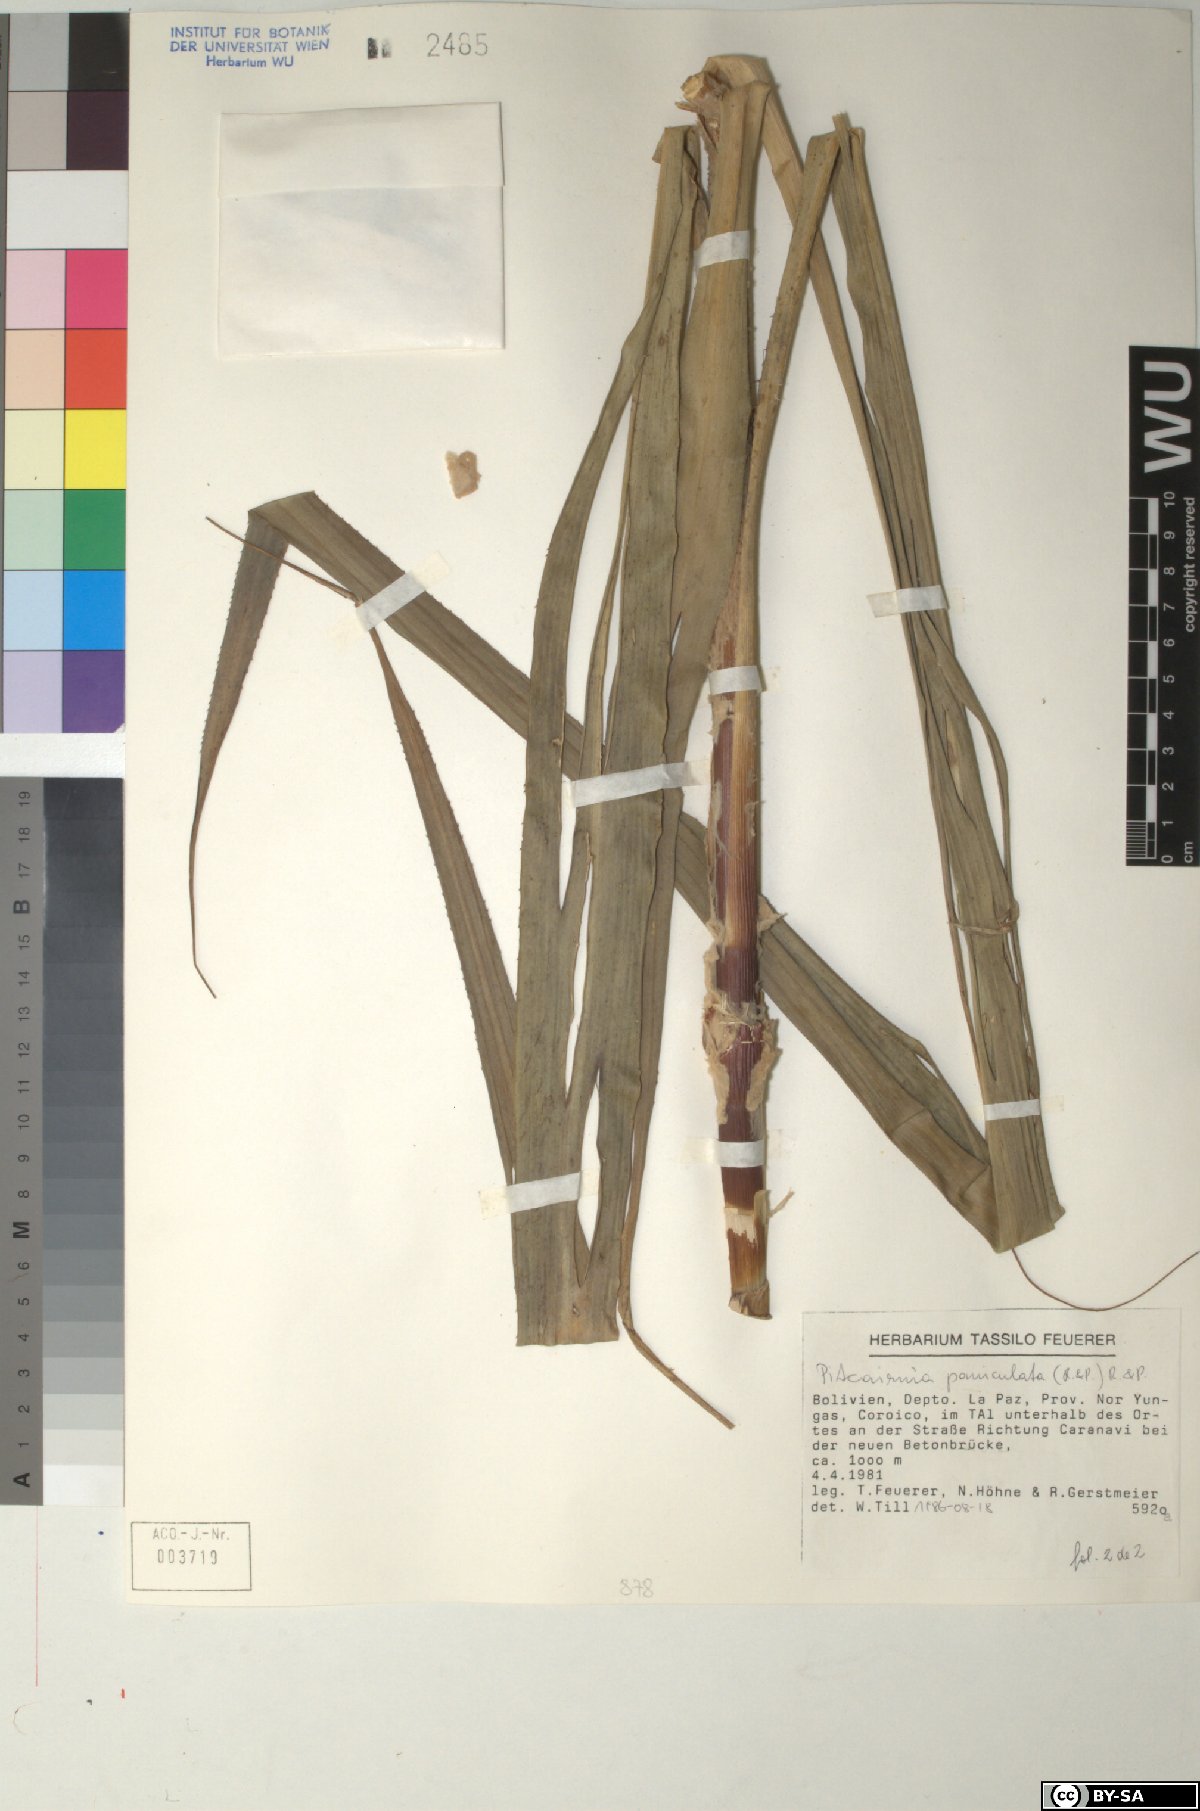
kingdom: Plantae
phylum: Tracheophyta
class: Liliopsida
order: Poales
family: Bromeliaceae
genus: Pitcairnia
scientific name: Pitcairnia paniculata
